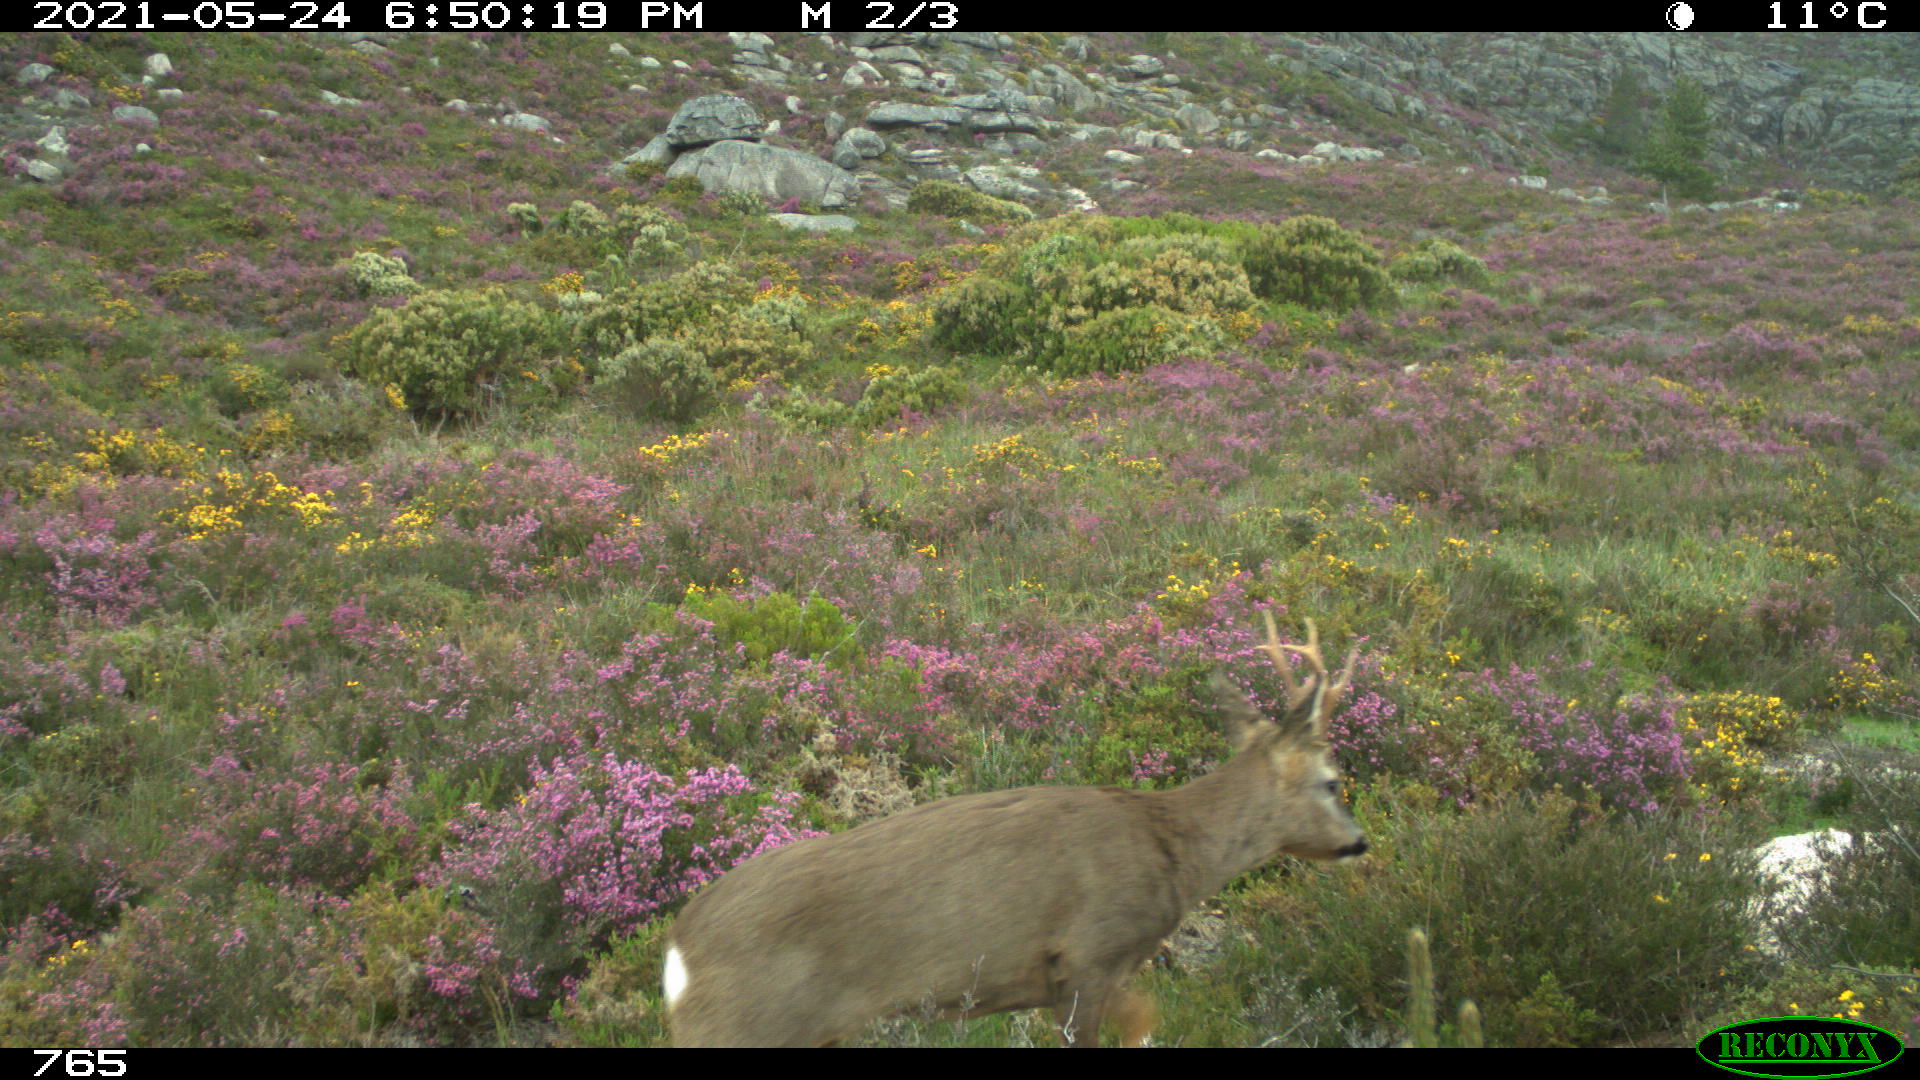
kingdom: Animalia
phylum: Chordata
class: Mammalia
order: Artiodactyla
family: Cervidae
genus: Capreolus
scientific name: Capreolus capreolus
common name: Western roe deer
